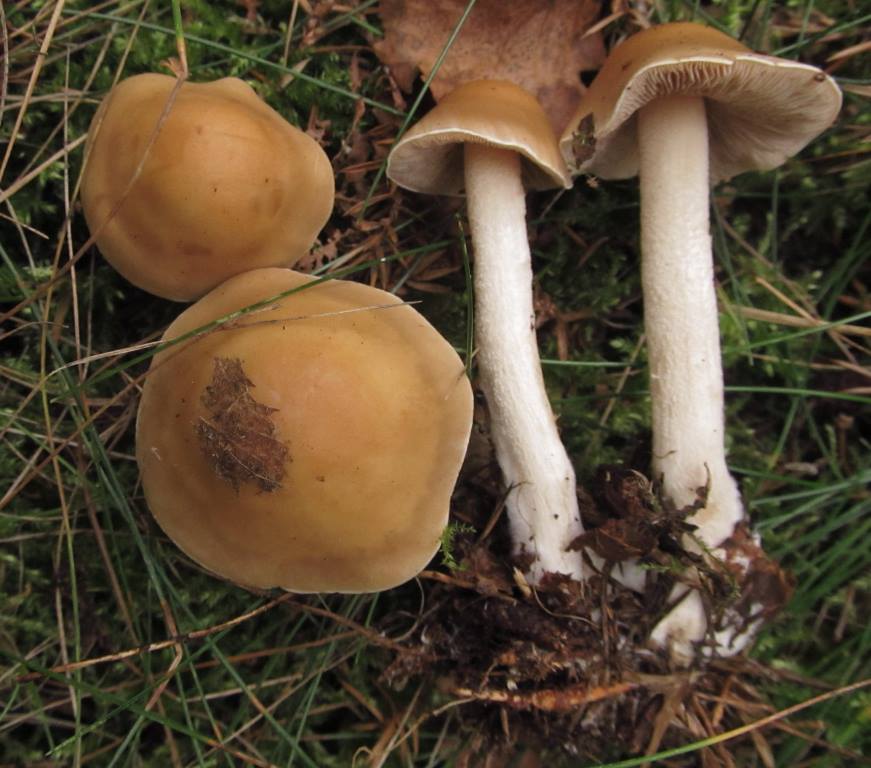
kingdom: Fungi
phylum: Basidiomycota
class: Agaricomycetes
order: Agaricales
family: Hymenogastraceae
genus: Hebeloma
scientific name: Hebeloma
